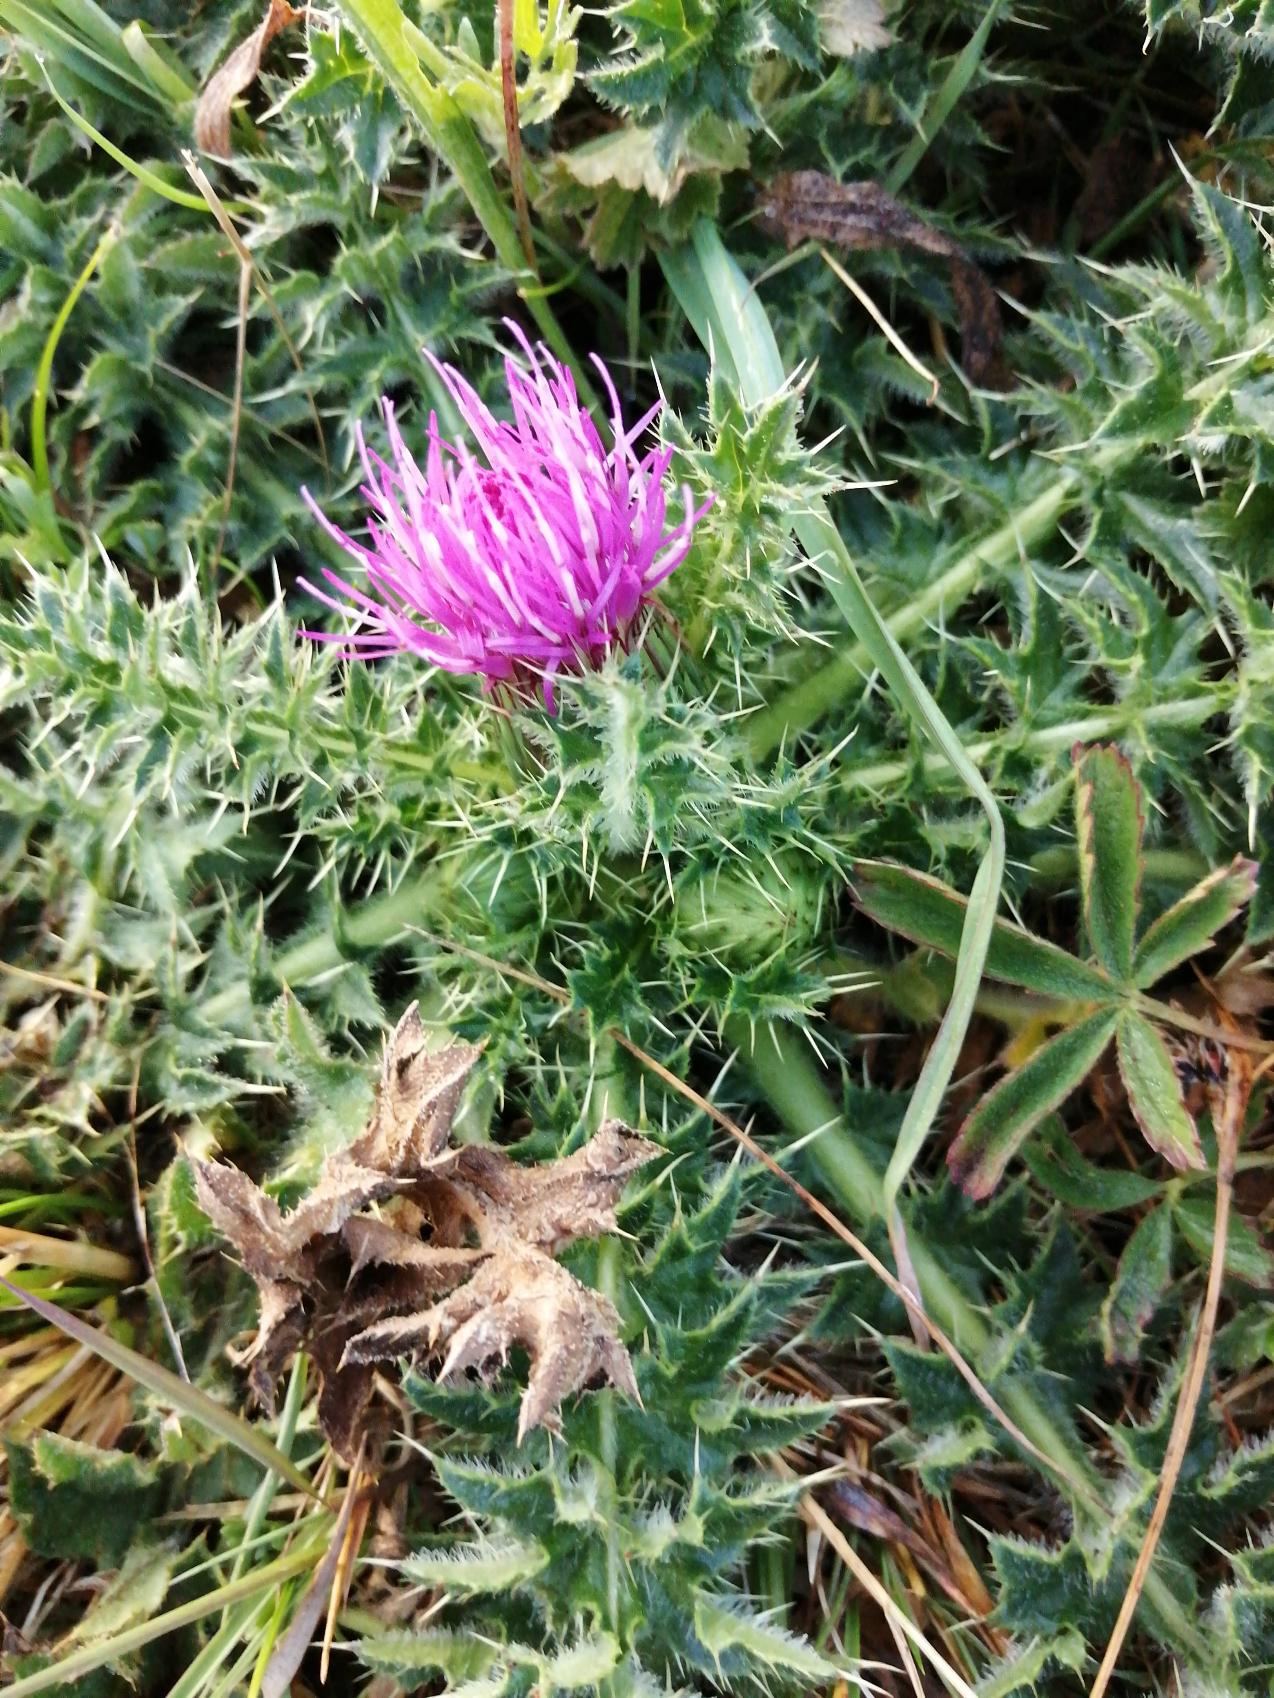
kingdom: Plantae
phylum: Tracheophyta
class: Magnoliopsida
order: Asterales
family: Asteraceae
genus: Cirsium
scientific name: Cirsium acaule
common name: Lav tidsel
